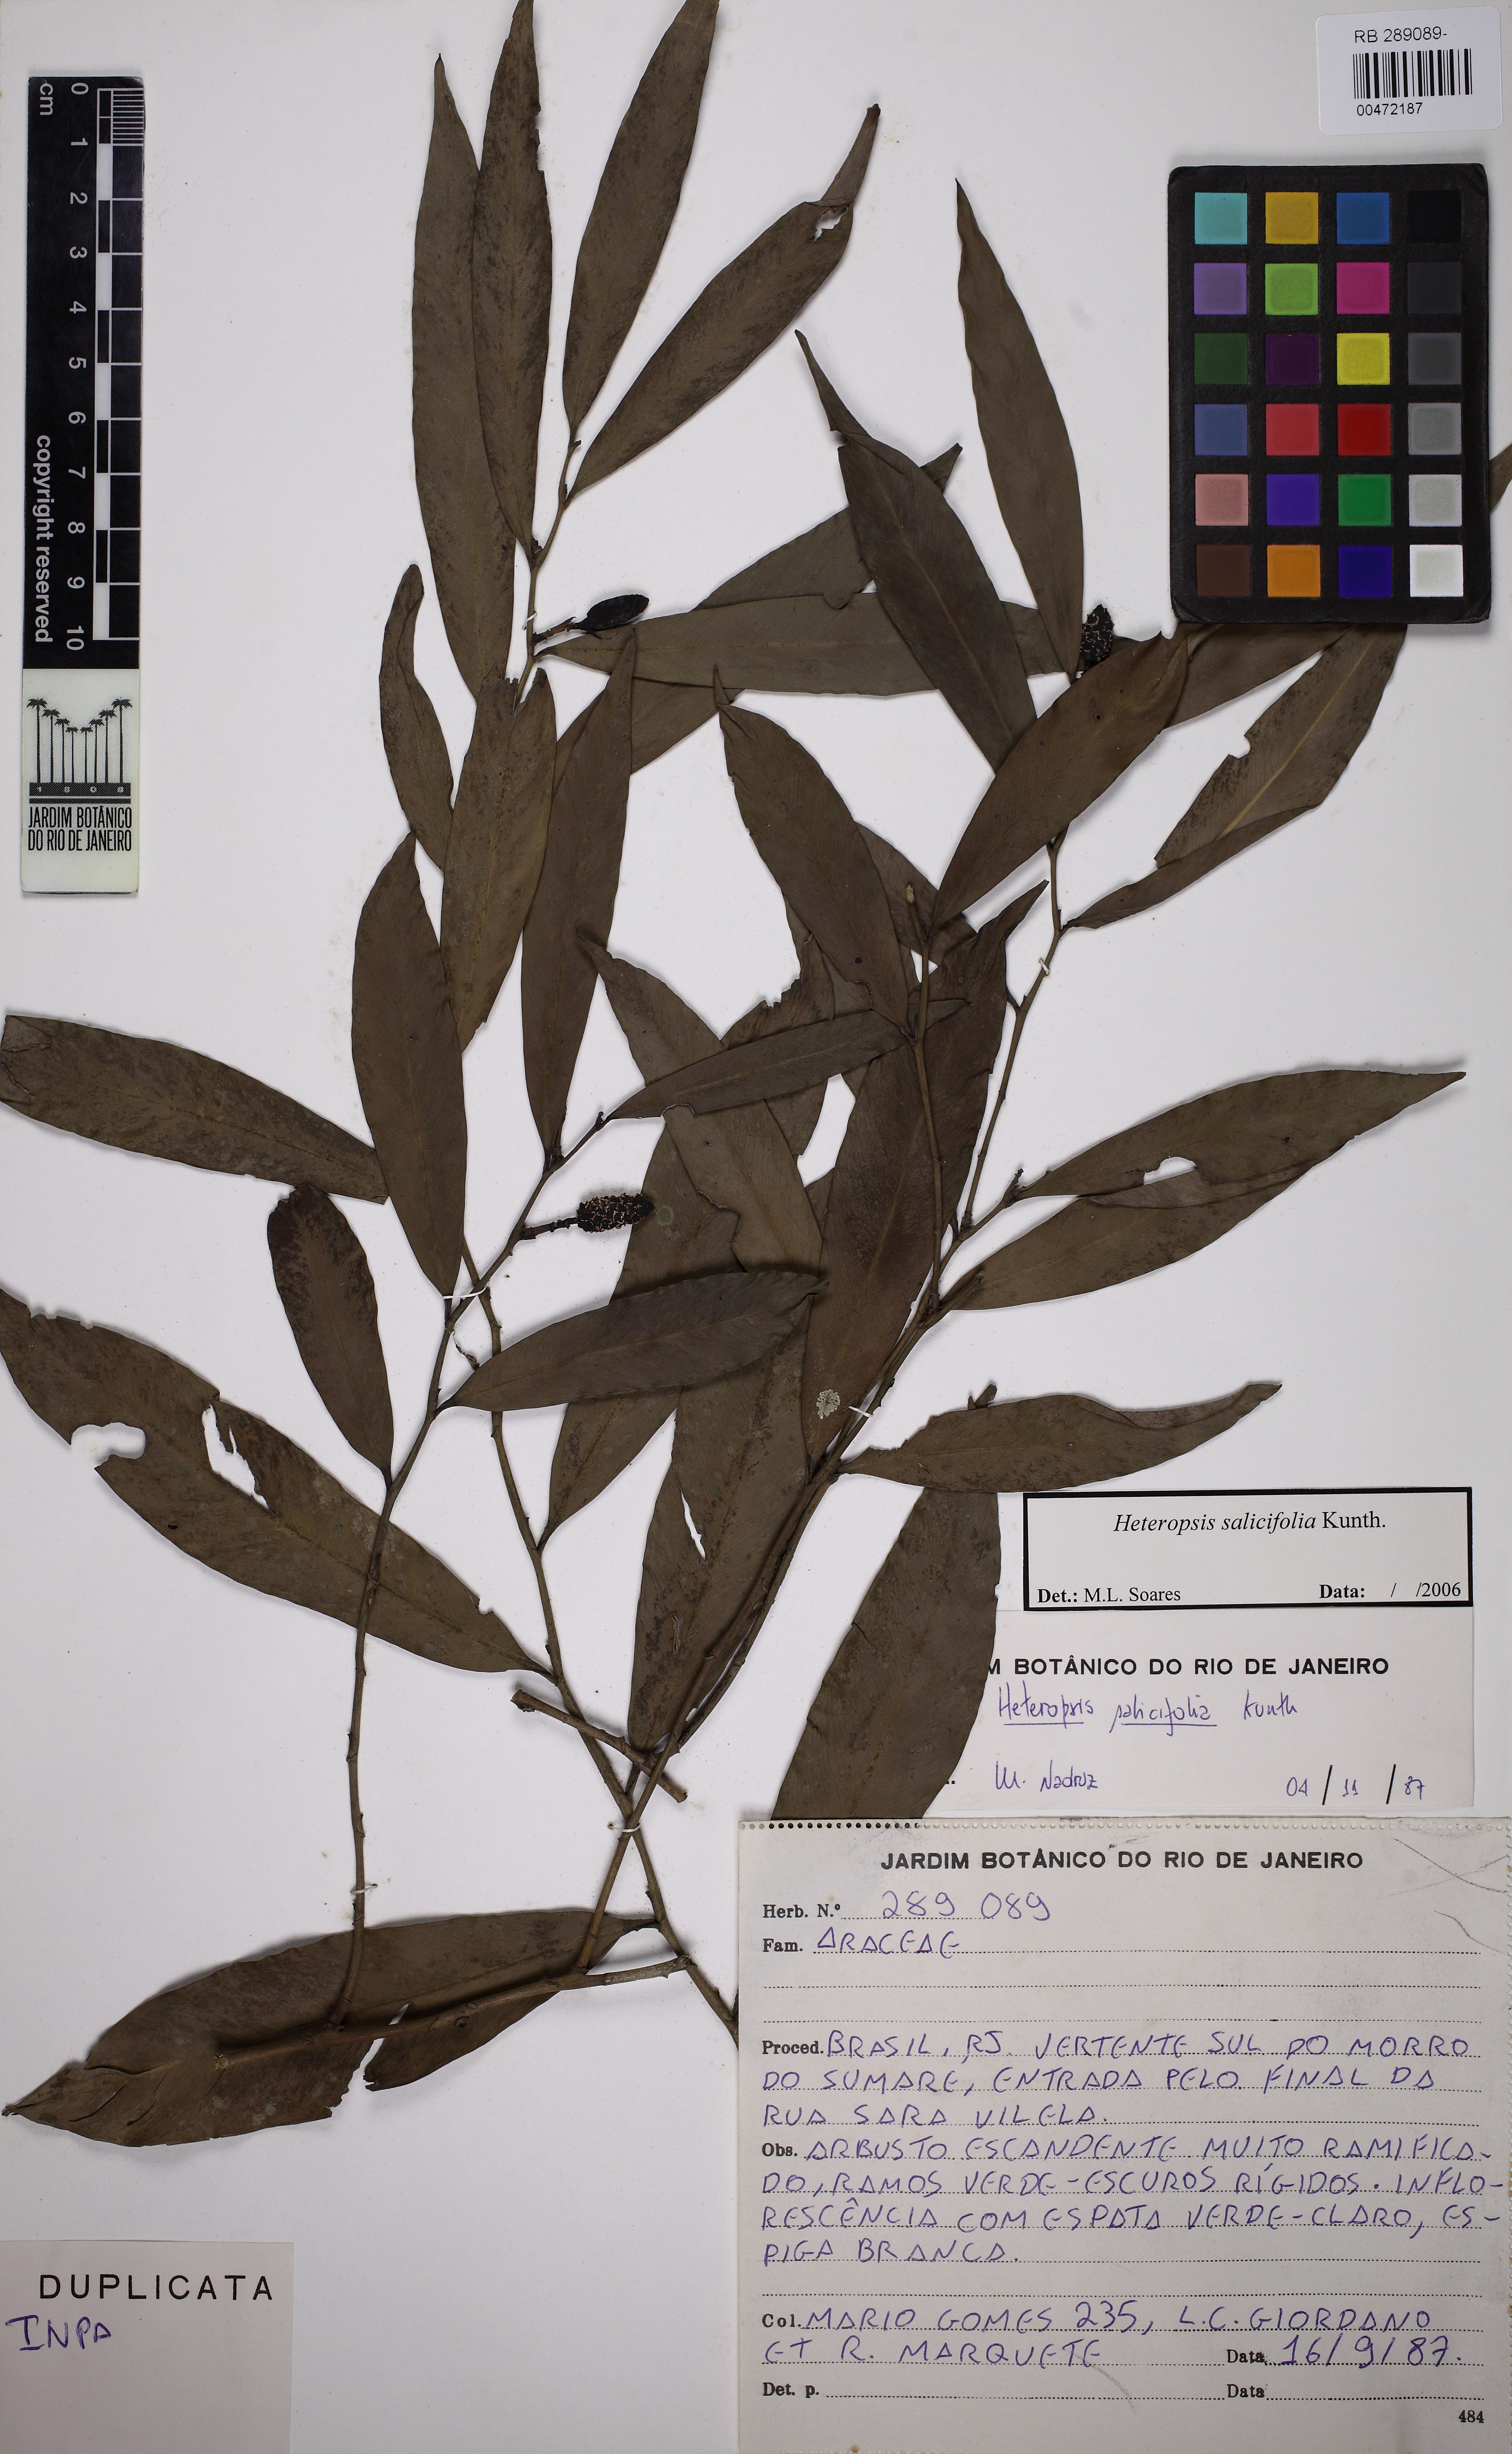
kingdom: Plantae
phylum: Tracheophyta
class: Liliopsida
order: Alismatales
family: Araceae
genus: Heteropsis
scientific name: Heteropsis salicifolia
